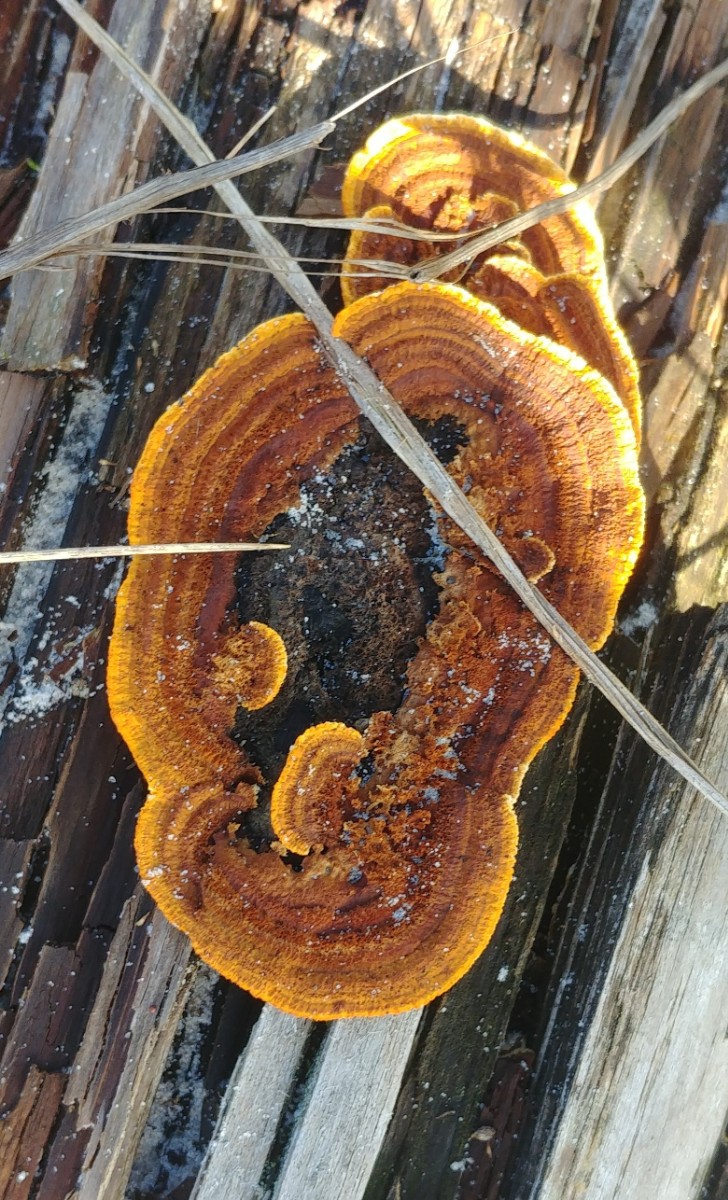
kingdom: Fungi
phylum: Basidiomycota
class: Agaricomycetes
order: Gloeophyllales
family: Gloeophyllaceae
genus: Gloeophyllum
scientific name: Gloeophyllum sepiarium
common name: fyrre-korkhat
